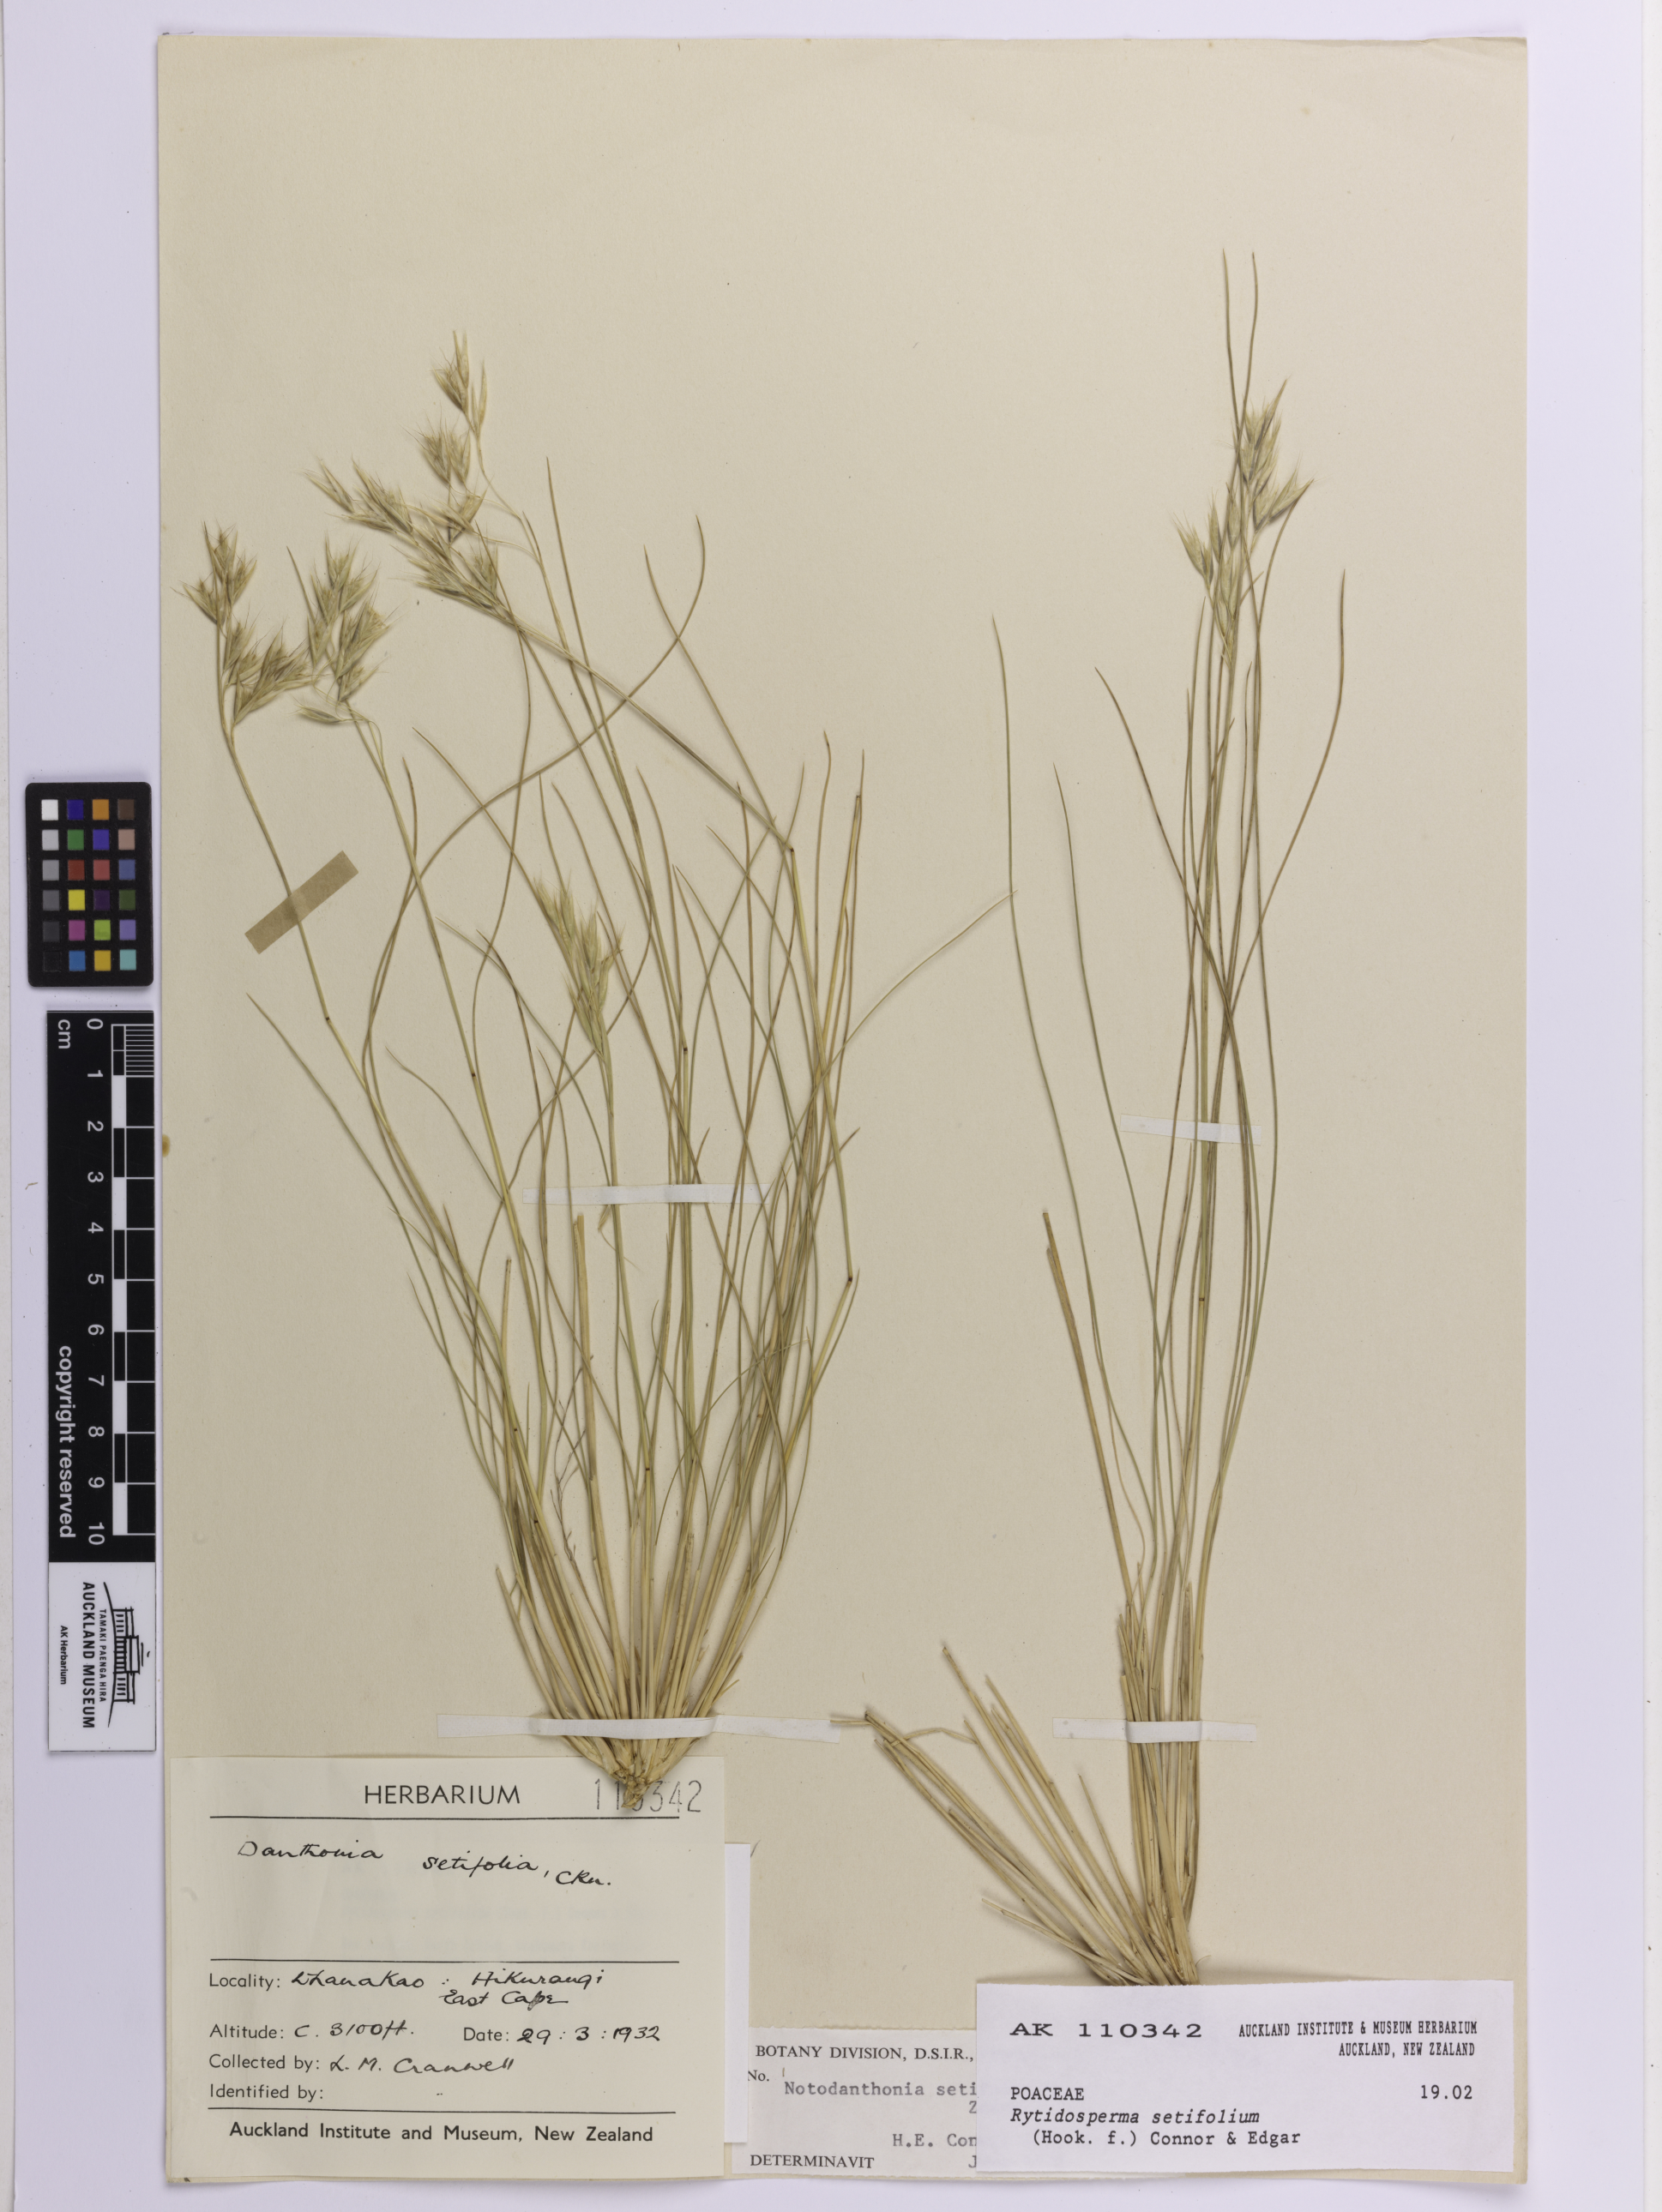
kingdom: Plantae
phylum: Tracheophyta
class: Liliopsida
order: Poales
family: Poaceae
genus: Rytidosperma
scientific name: Rytidosperma setifolium
